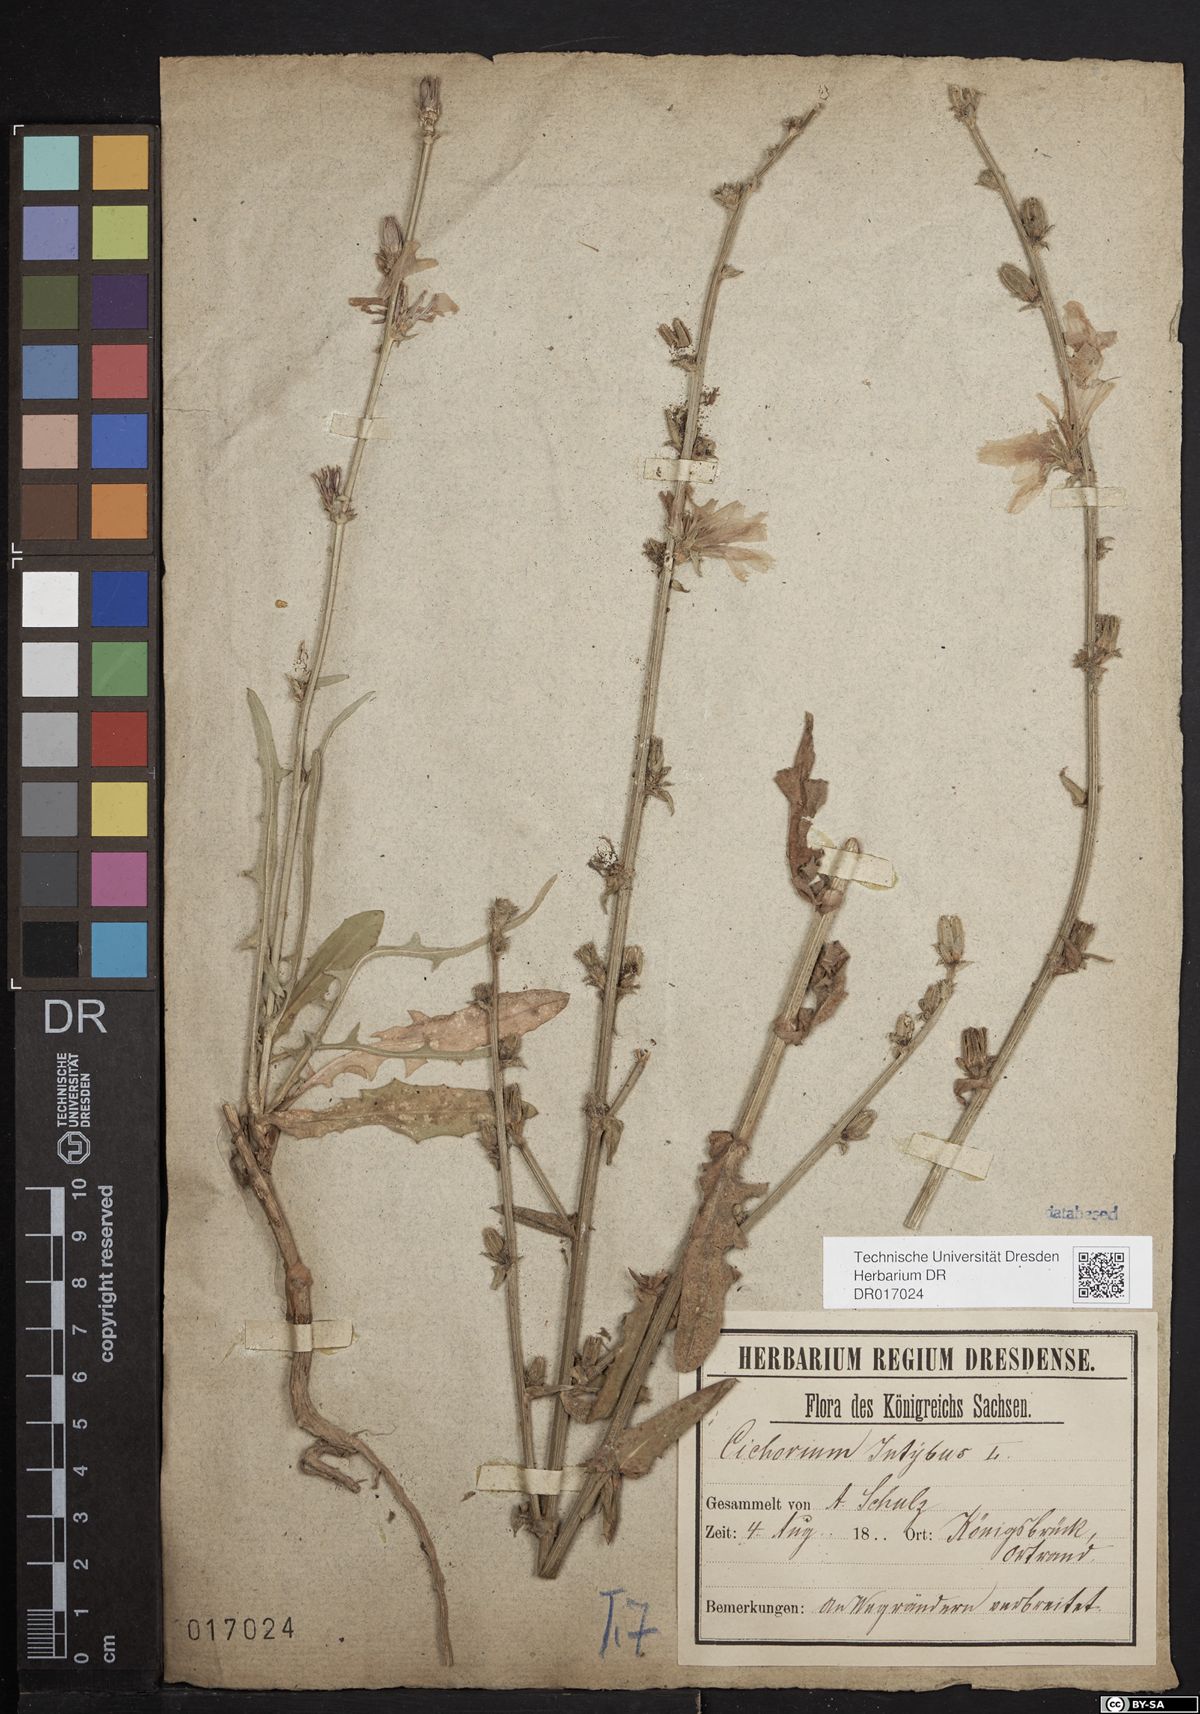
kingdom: Plantae
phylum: Tracheophyta
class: Magnoliopsida
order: Asterales
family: Asteraceae
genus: Cichorium
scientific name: Cichorium intybus
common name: Chicory
